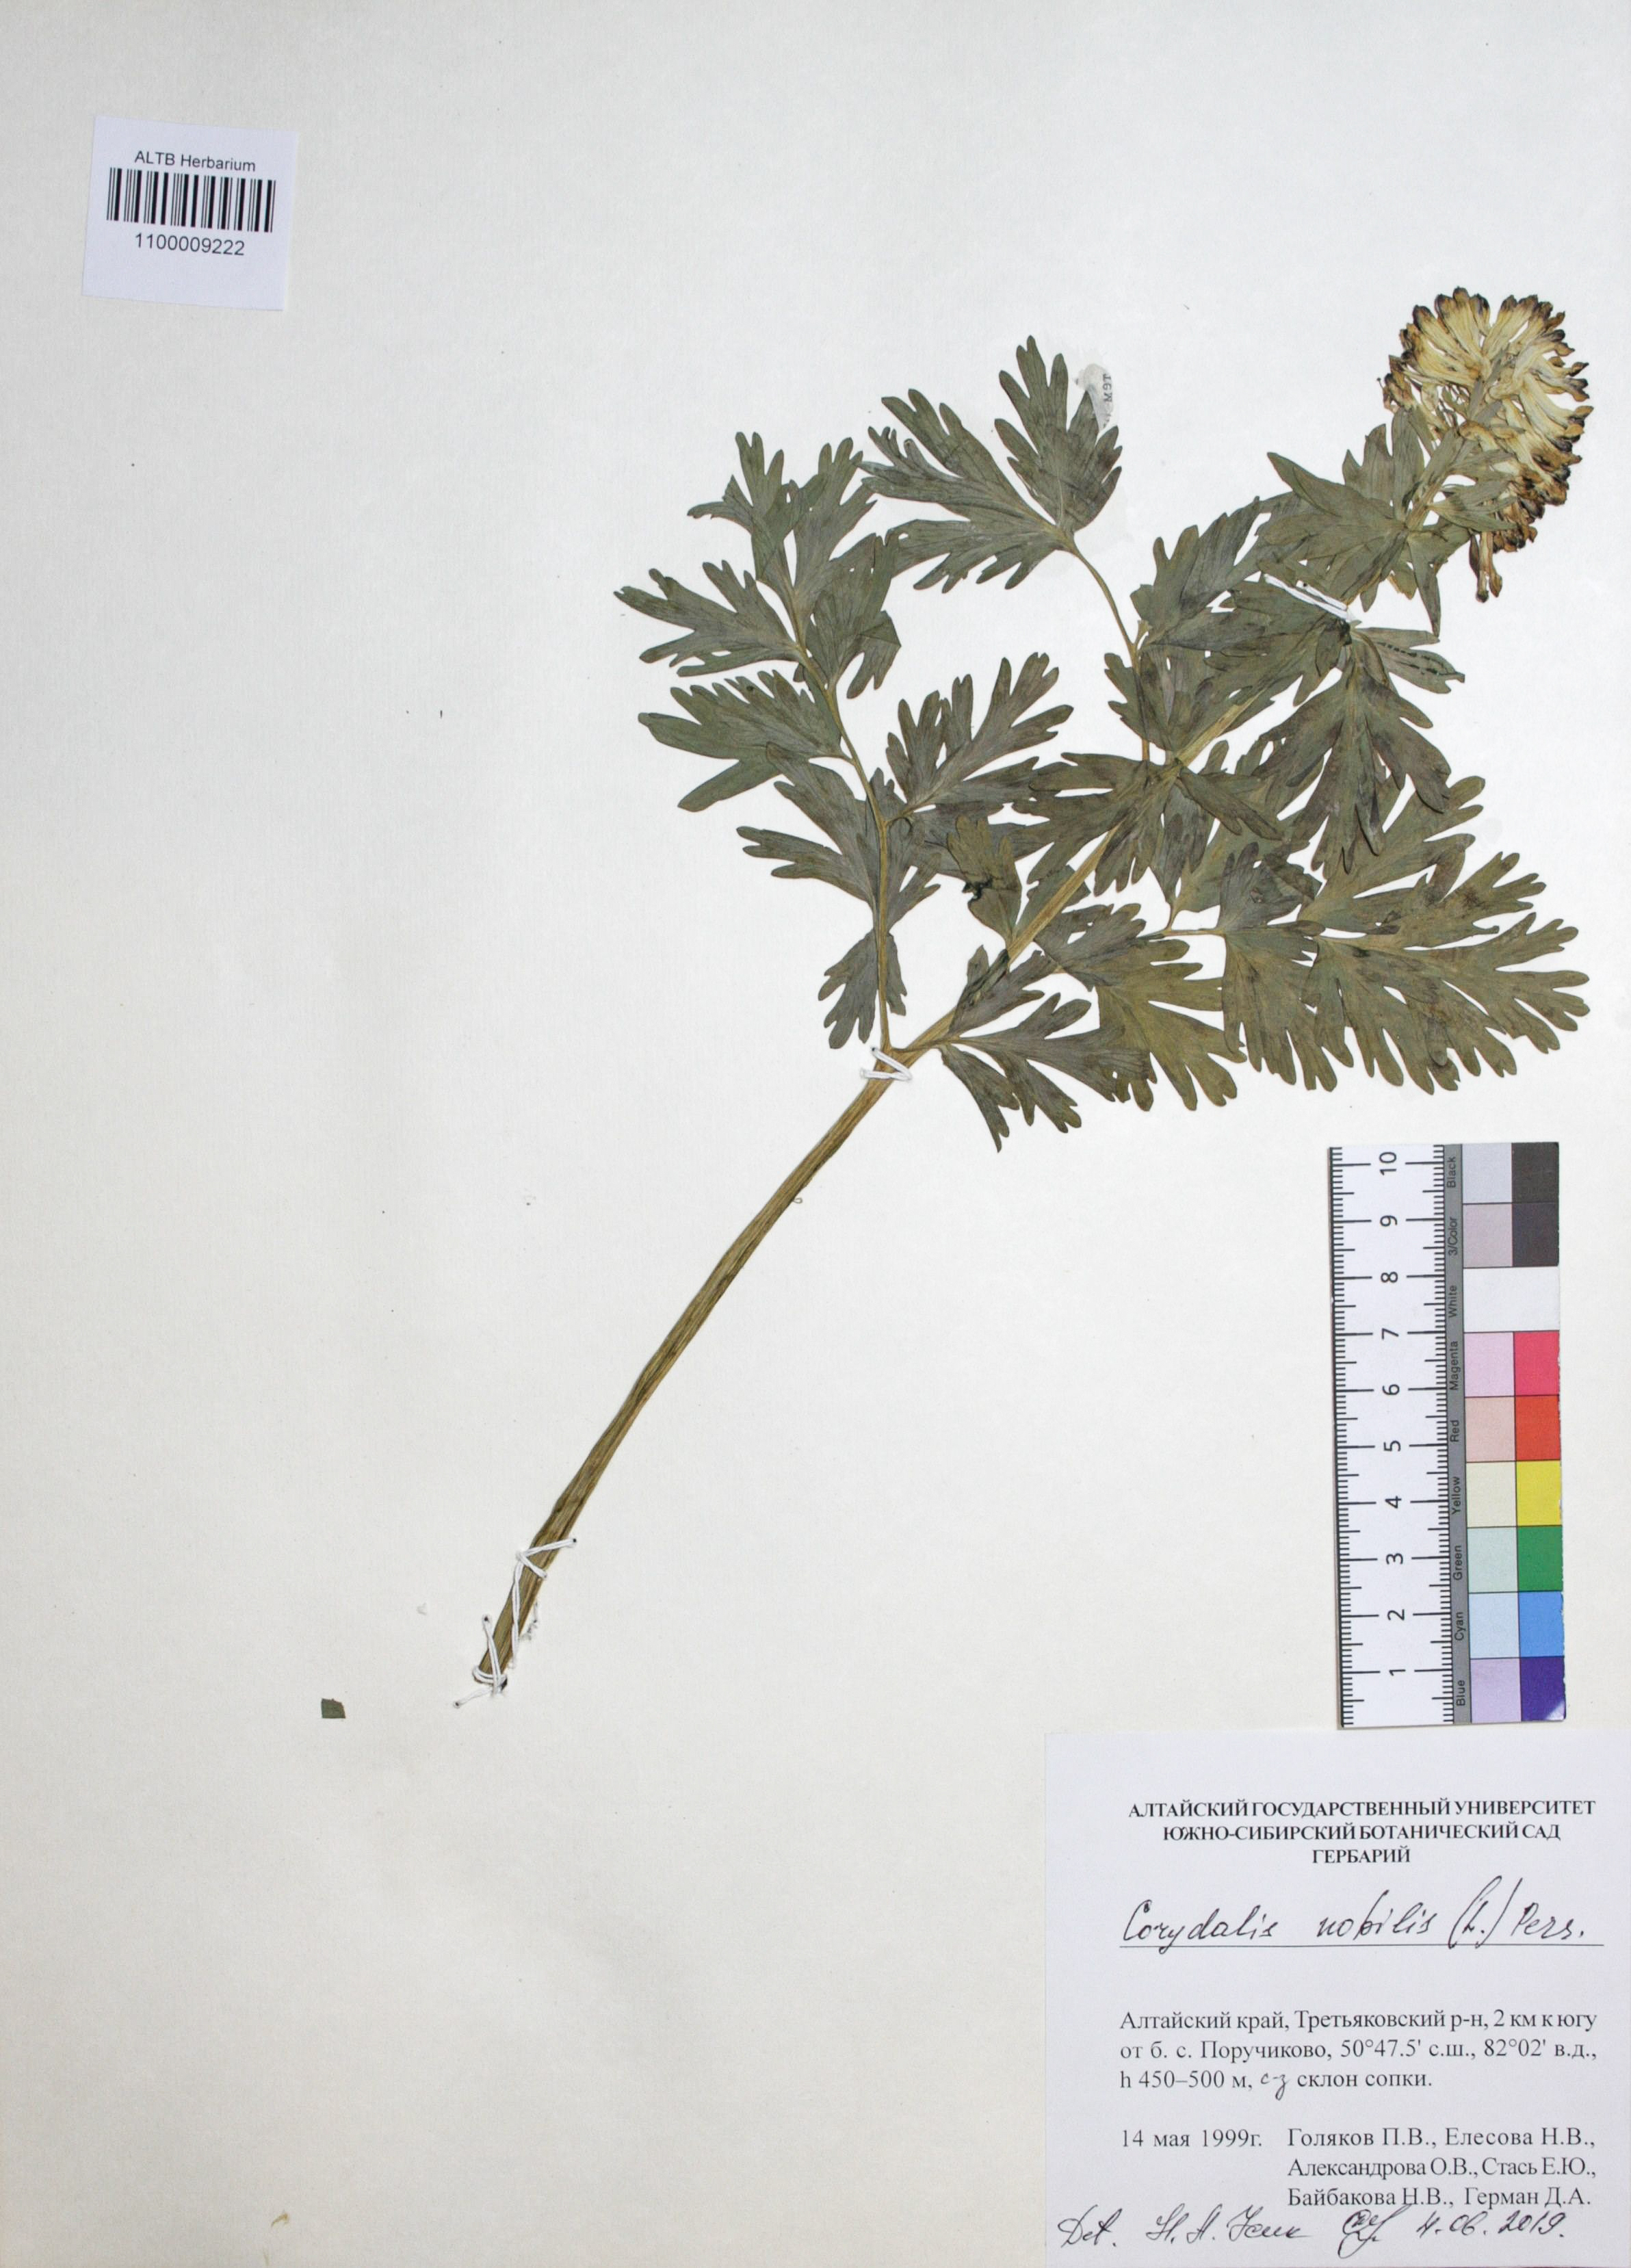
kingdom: Plantae
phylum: Tracheophyta
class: Magnoliopsida
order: Ranunculales
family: Papaveraceae
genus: Corydalis
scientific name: Corydalis nobilis
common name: Siberian corydalis
